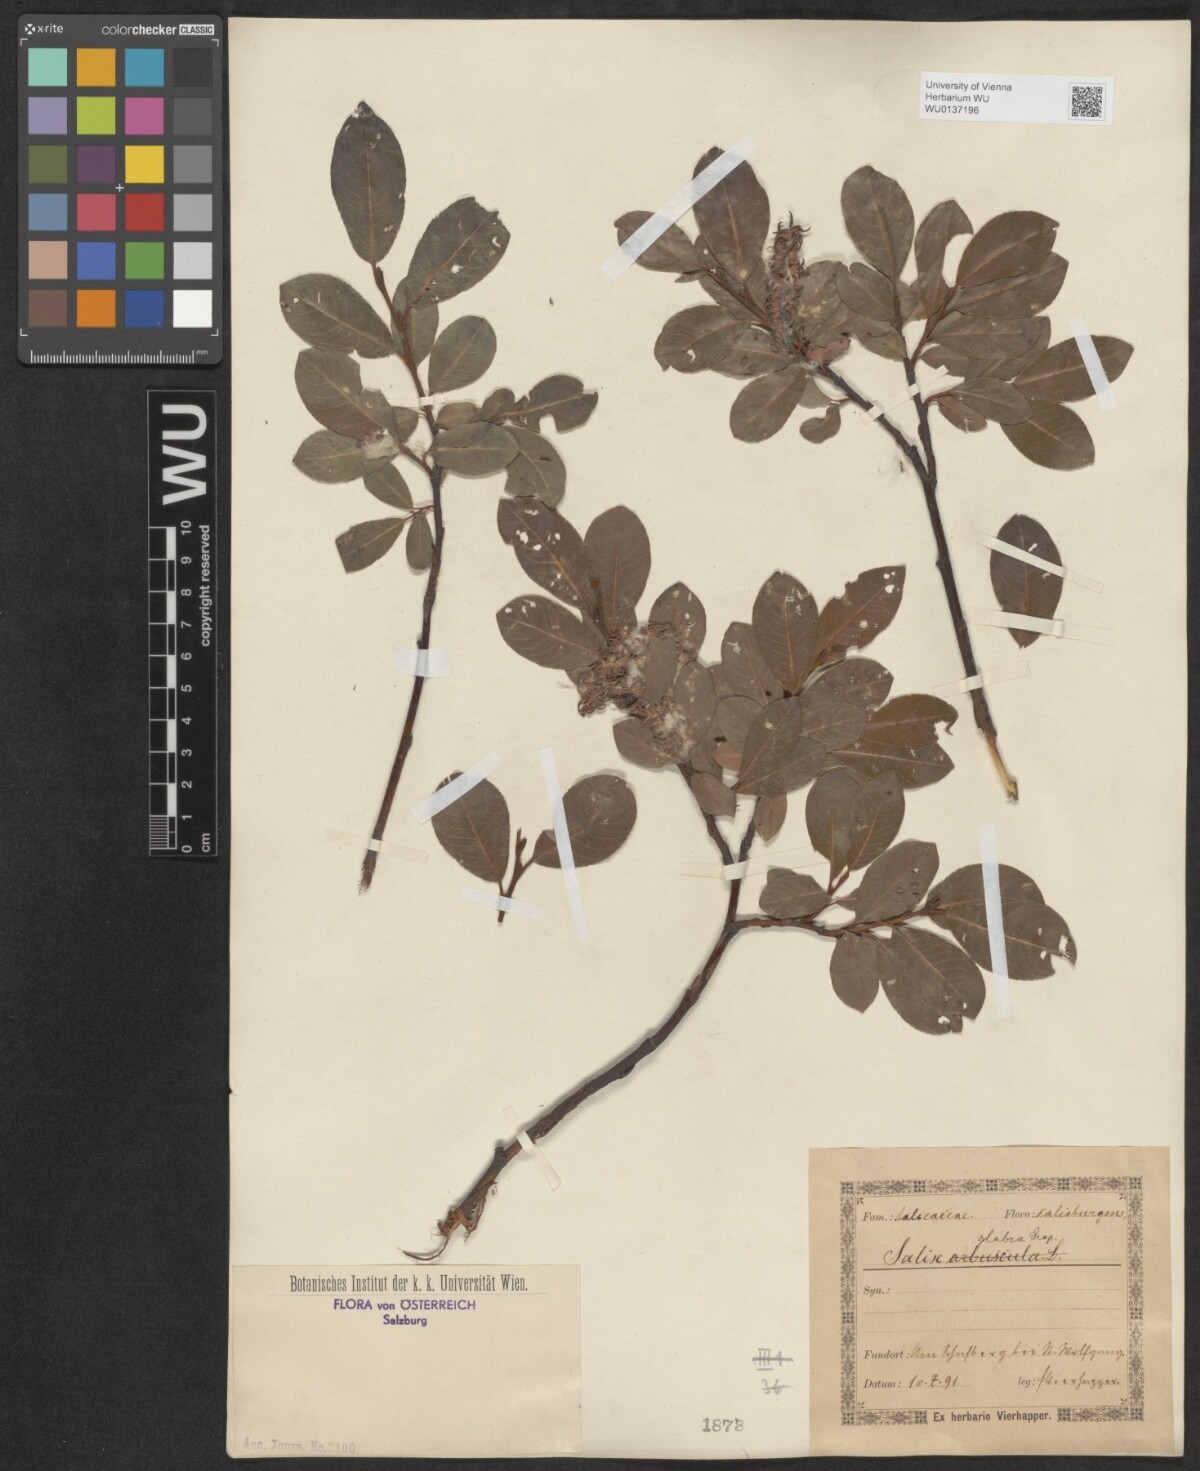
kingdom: Plantae
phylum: Tracheophyta
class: Magnoliopsida
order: Malpighiales
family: Salicaceae
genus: Salix
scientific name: Salix glabra
